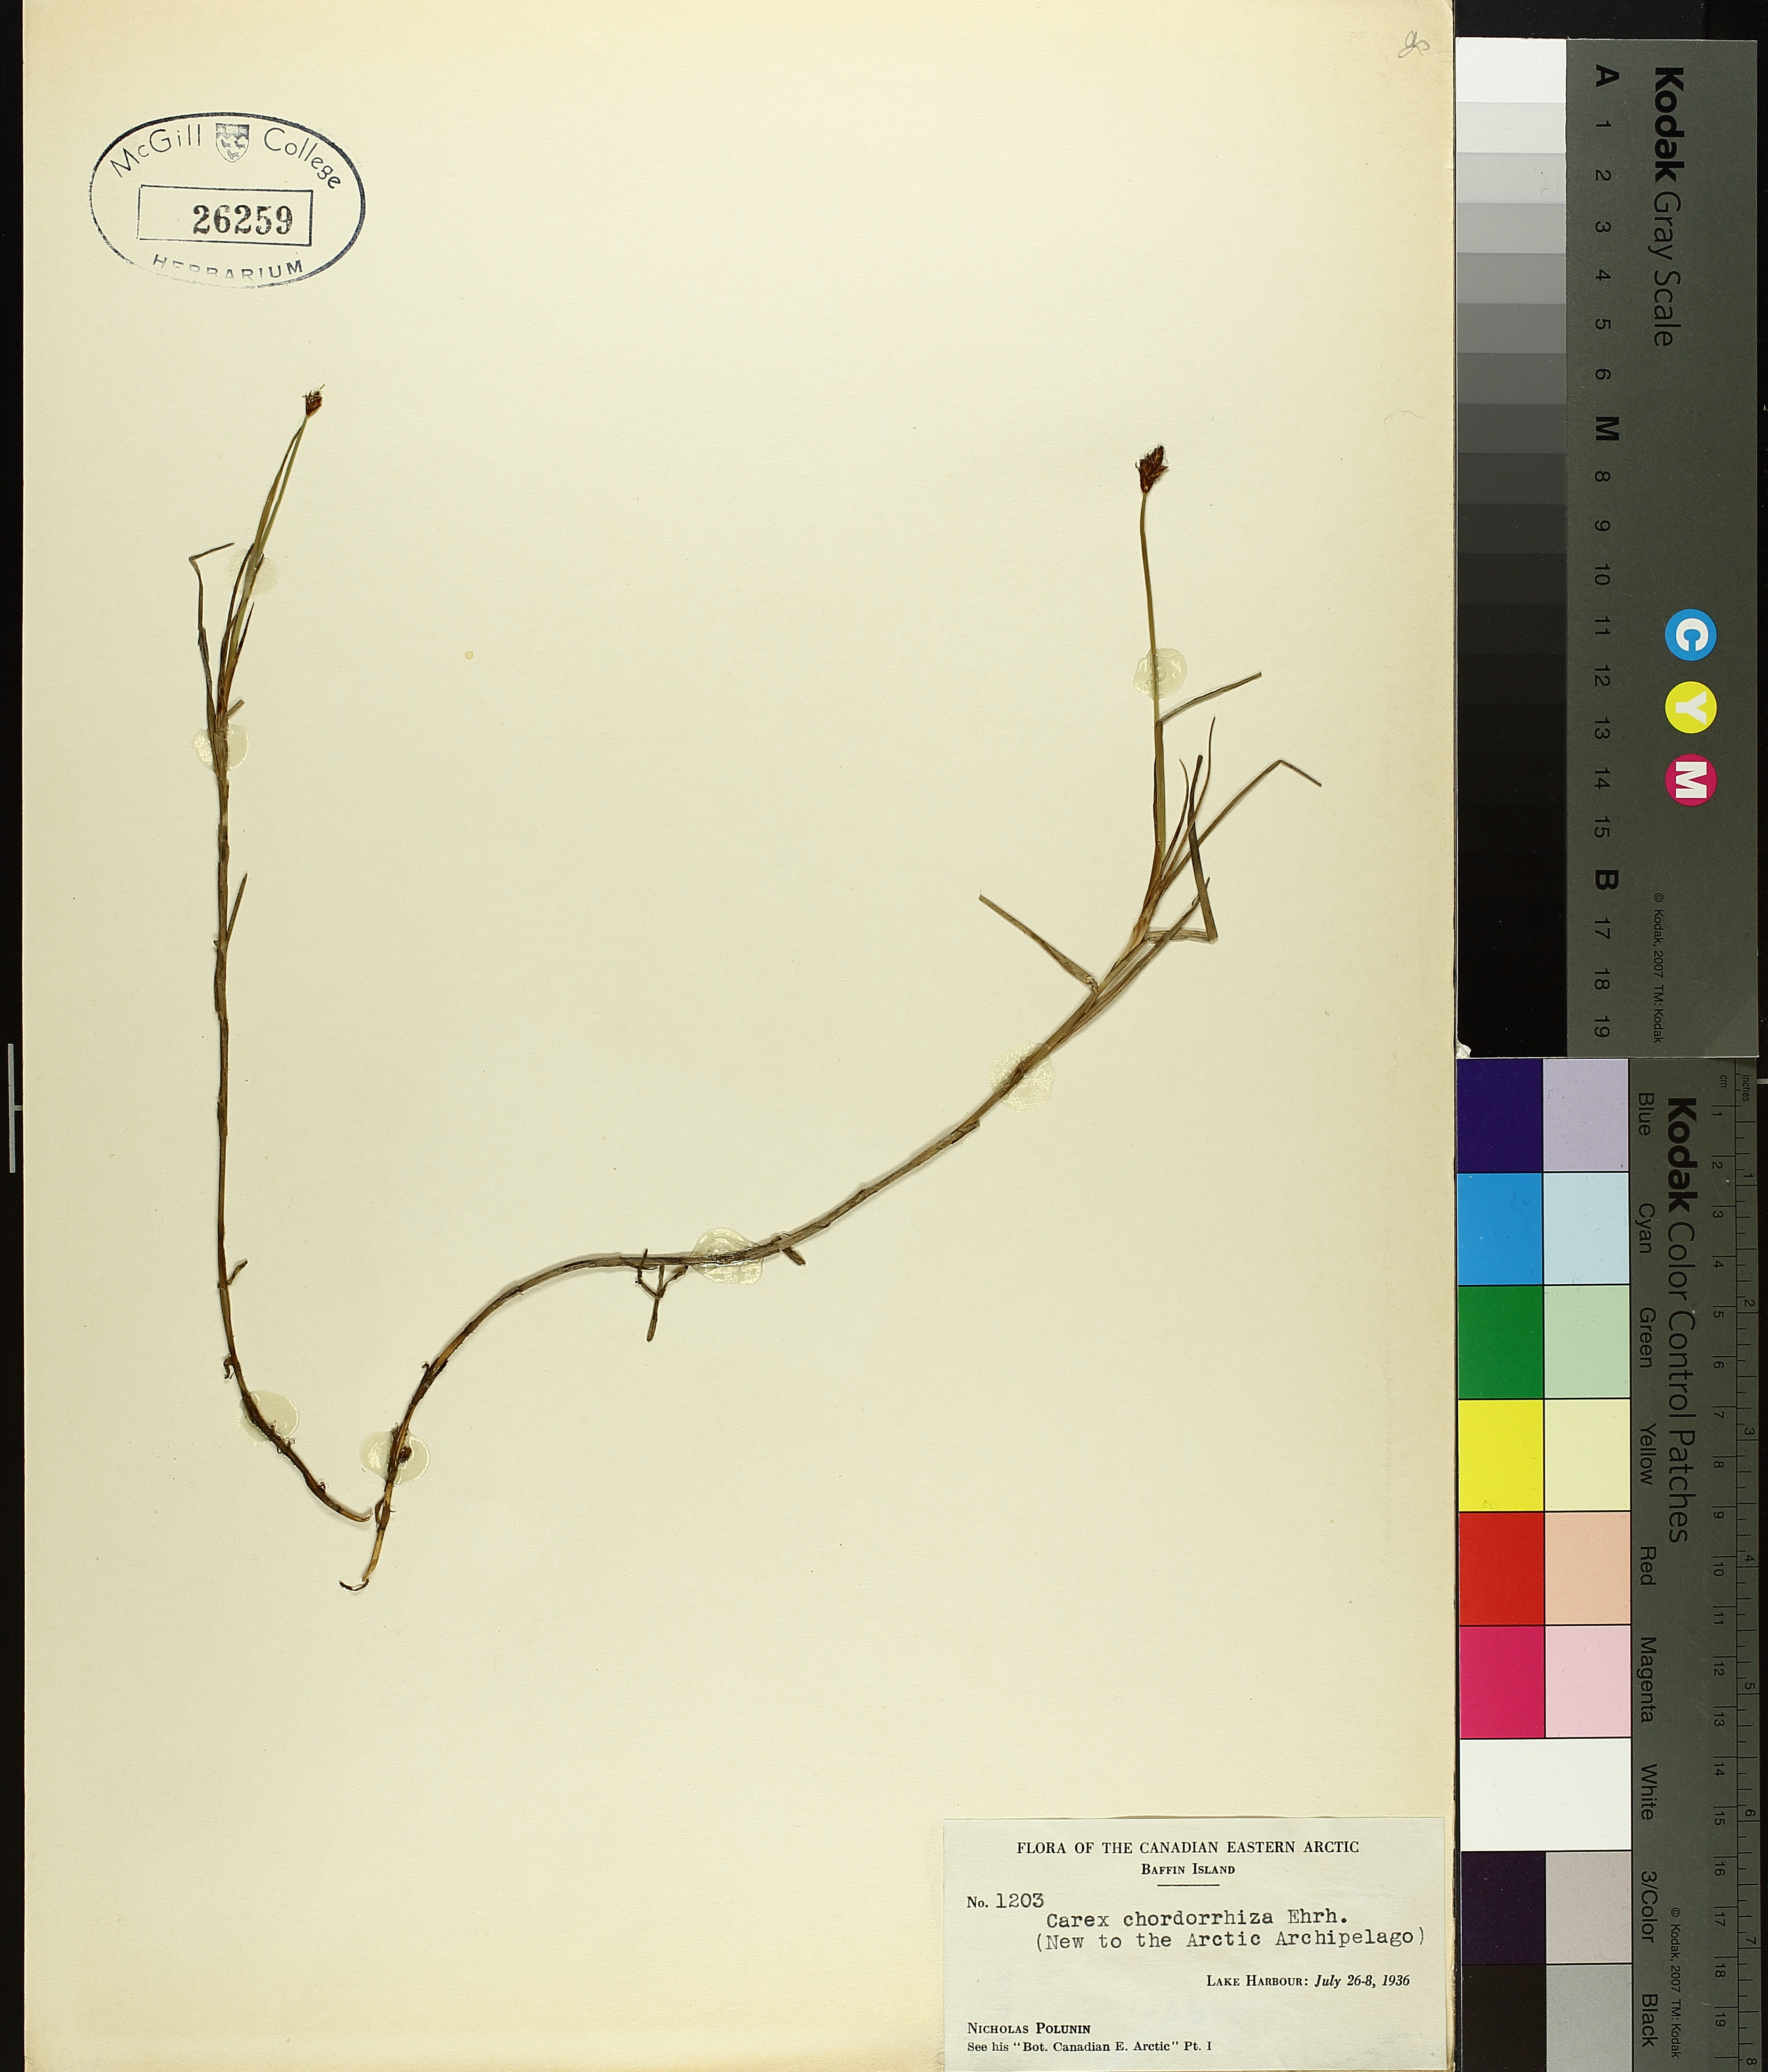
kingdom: Plantae
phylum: Tracheophyta
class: Liliopsida
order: Poales
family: Cyperaceae
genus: Carex
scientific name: Carex
